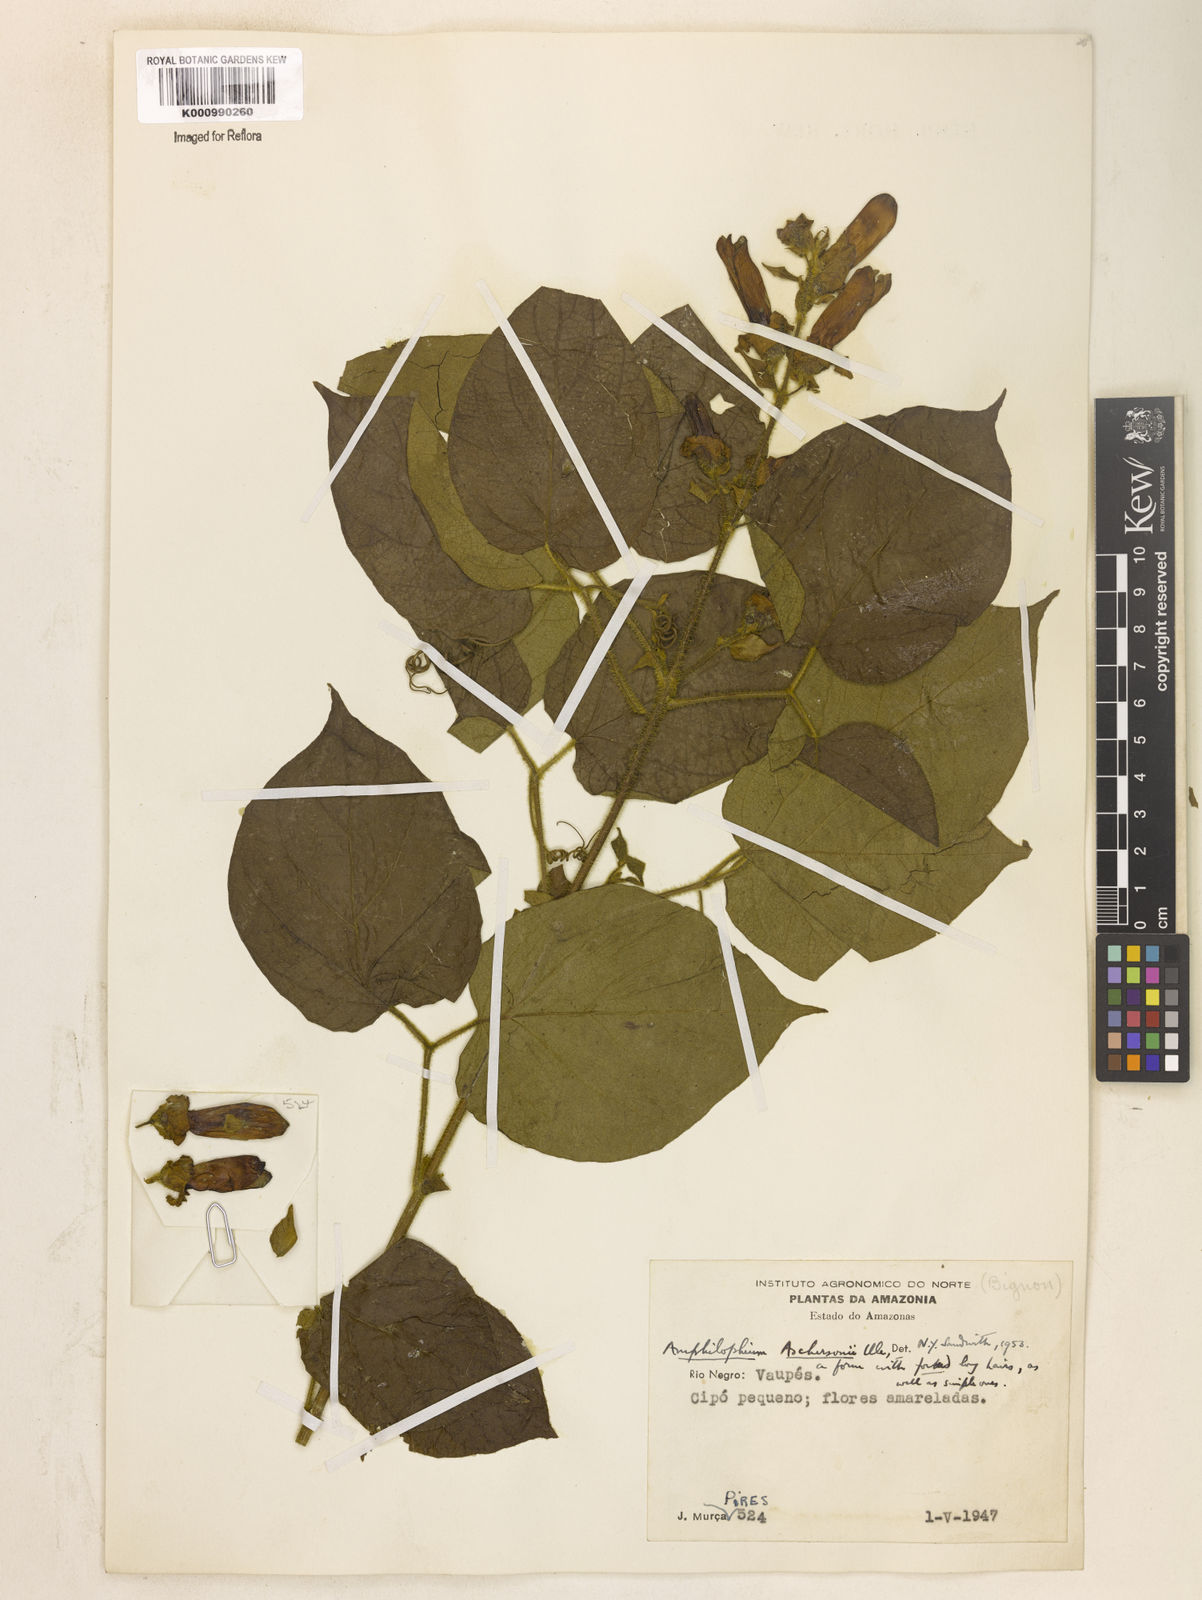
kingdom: Plantae
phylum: Tracheophyta
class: Magnoliopsida
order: Lamiales
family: Bignoniaceae
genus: Amphilophium
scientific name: Amphilophium pannosum
